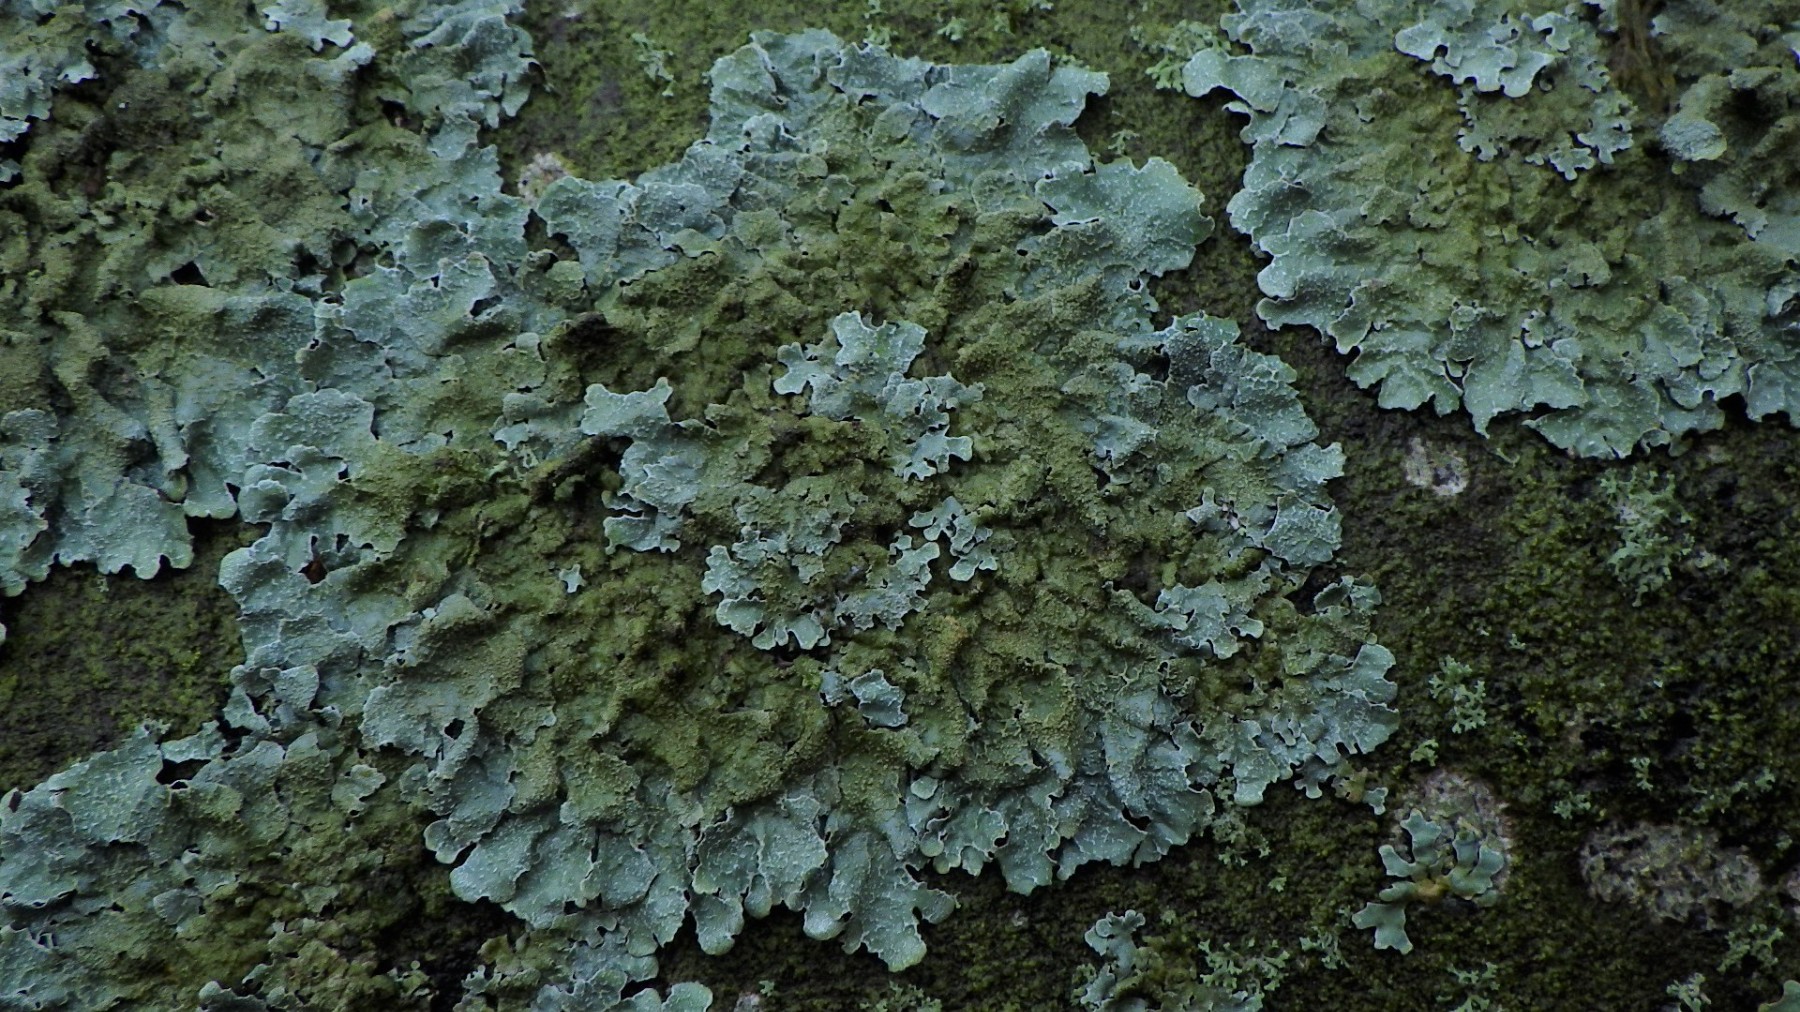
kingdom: Fungi
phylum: Ascomycota
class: Lecanoromycetes
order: Lecanorales
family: Parmeliaceae
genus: Parmelia
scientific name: Parmelia saxatilis
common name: farve-skållav
